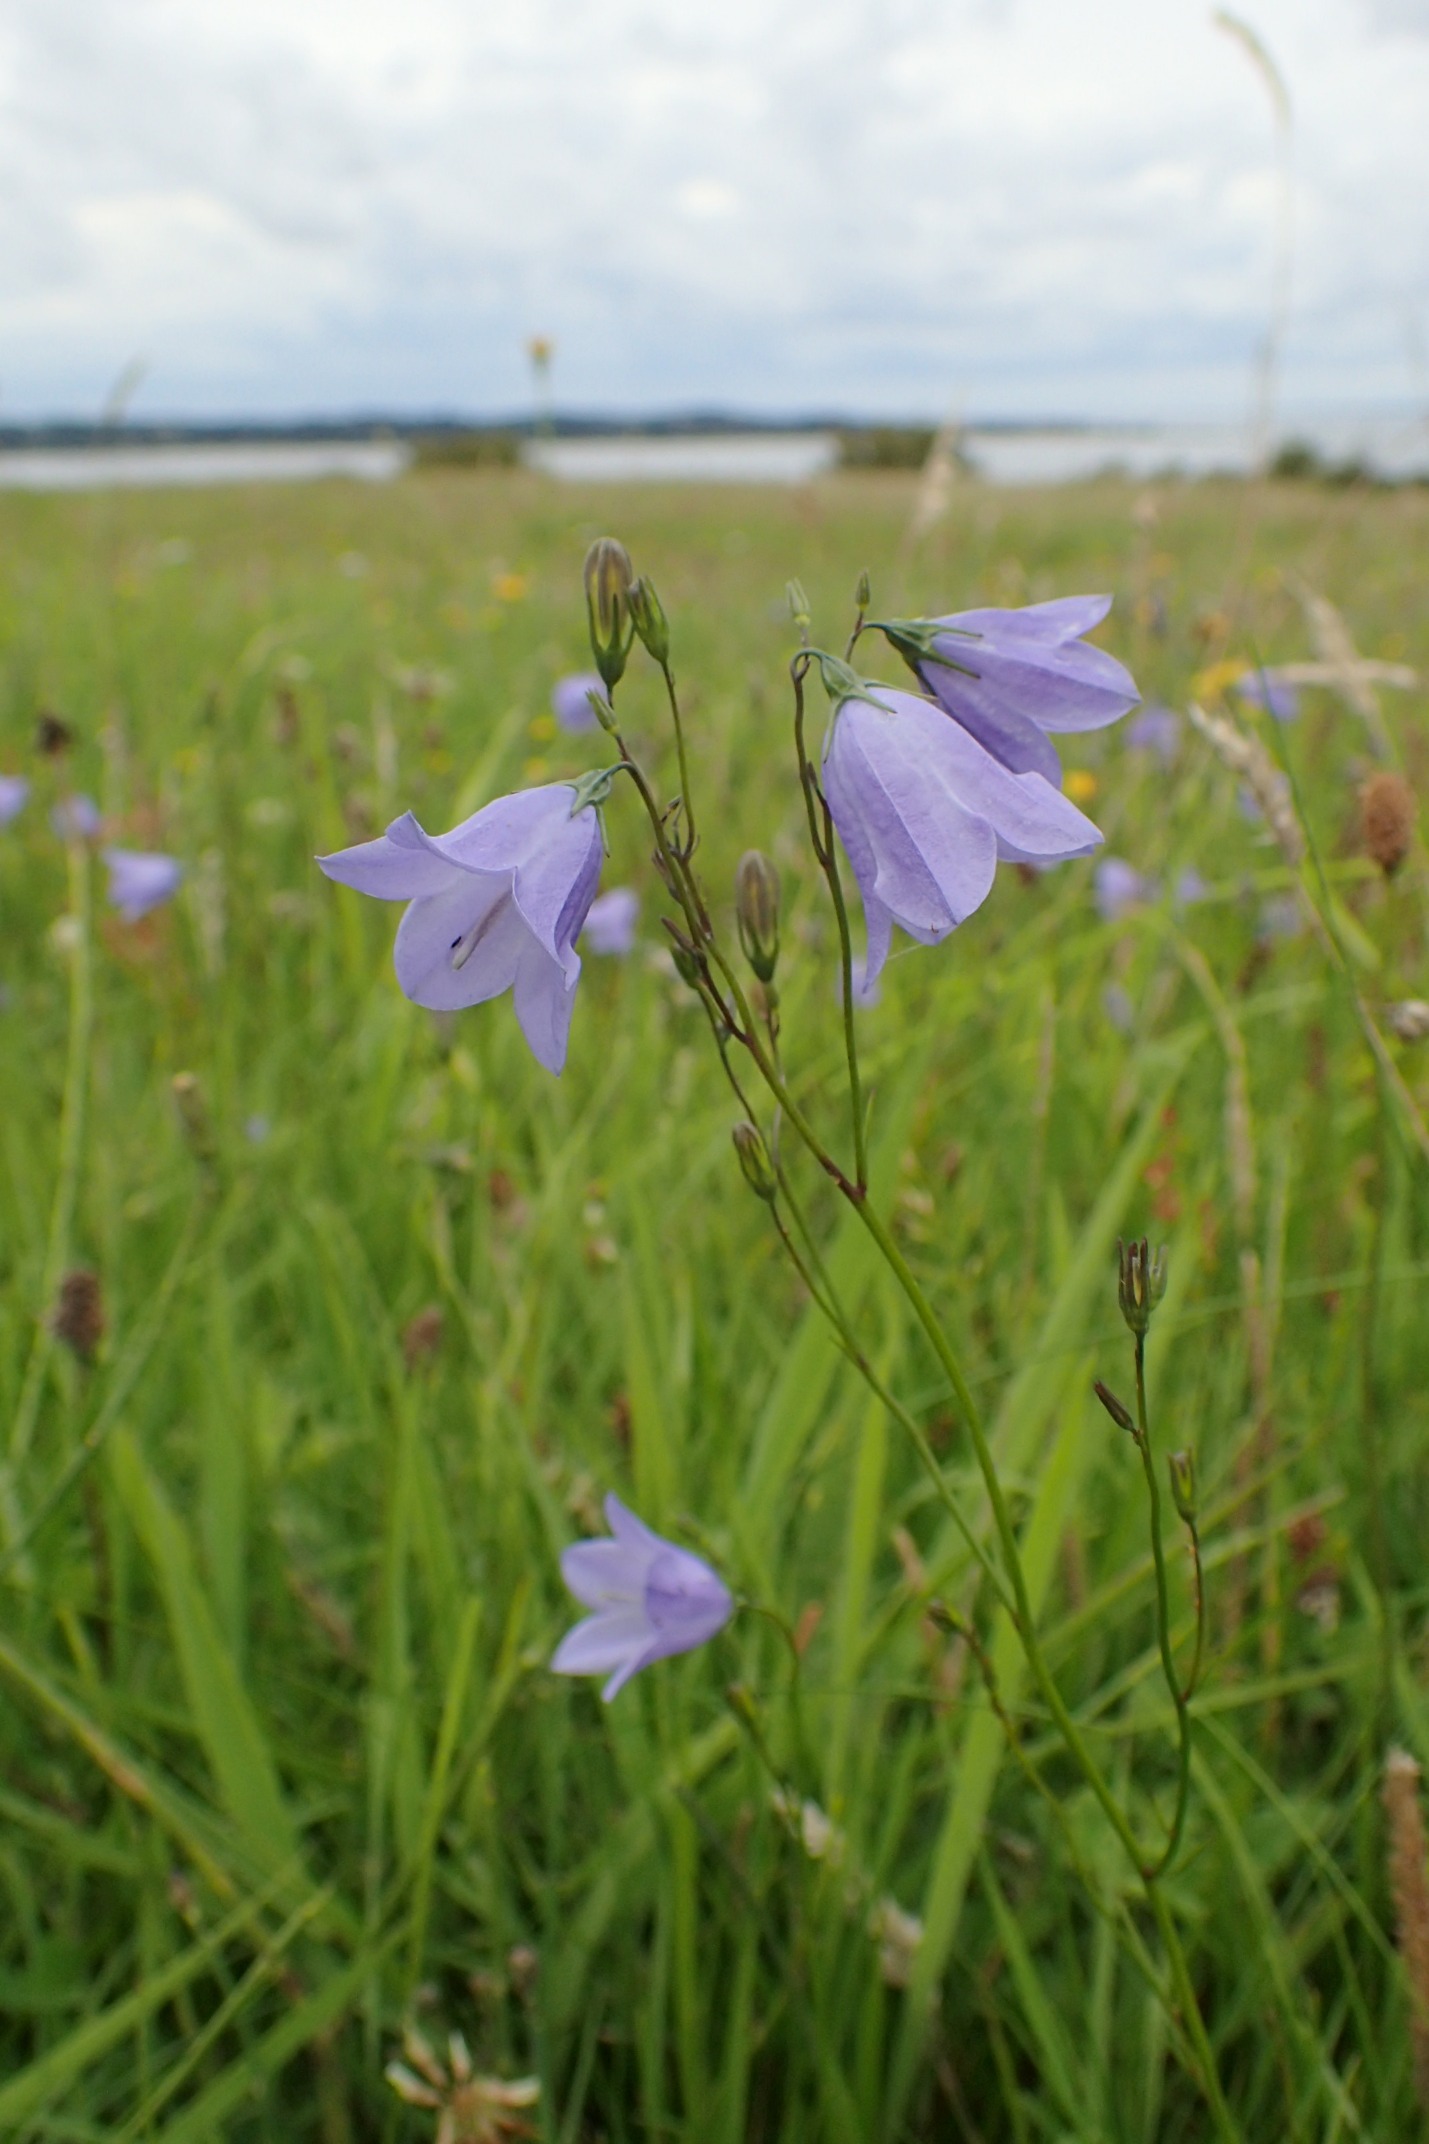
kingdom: Plantae
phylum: Tracheophyta
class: Magnoliopsida
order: Asterales
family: Campanulaceae
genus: Campanula
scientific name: Campanula rotundifolia
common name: Liden klokke
